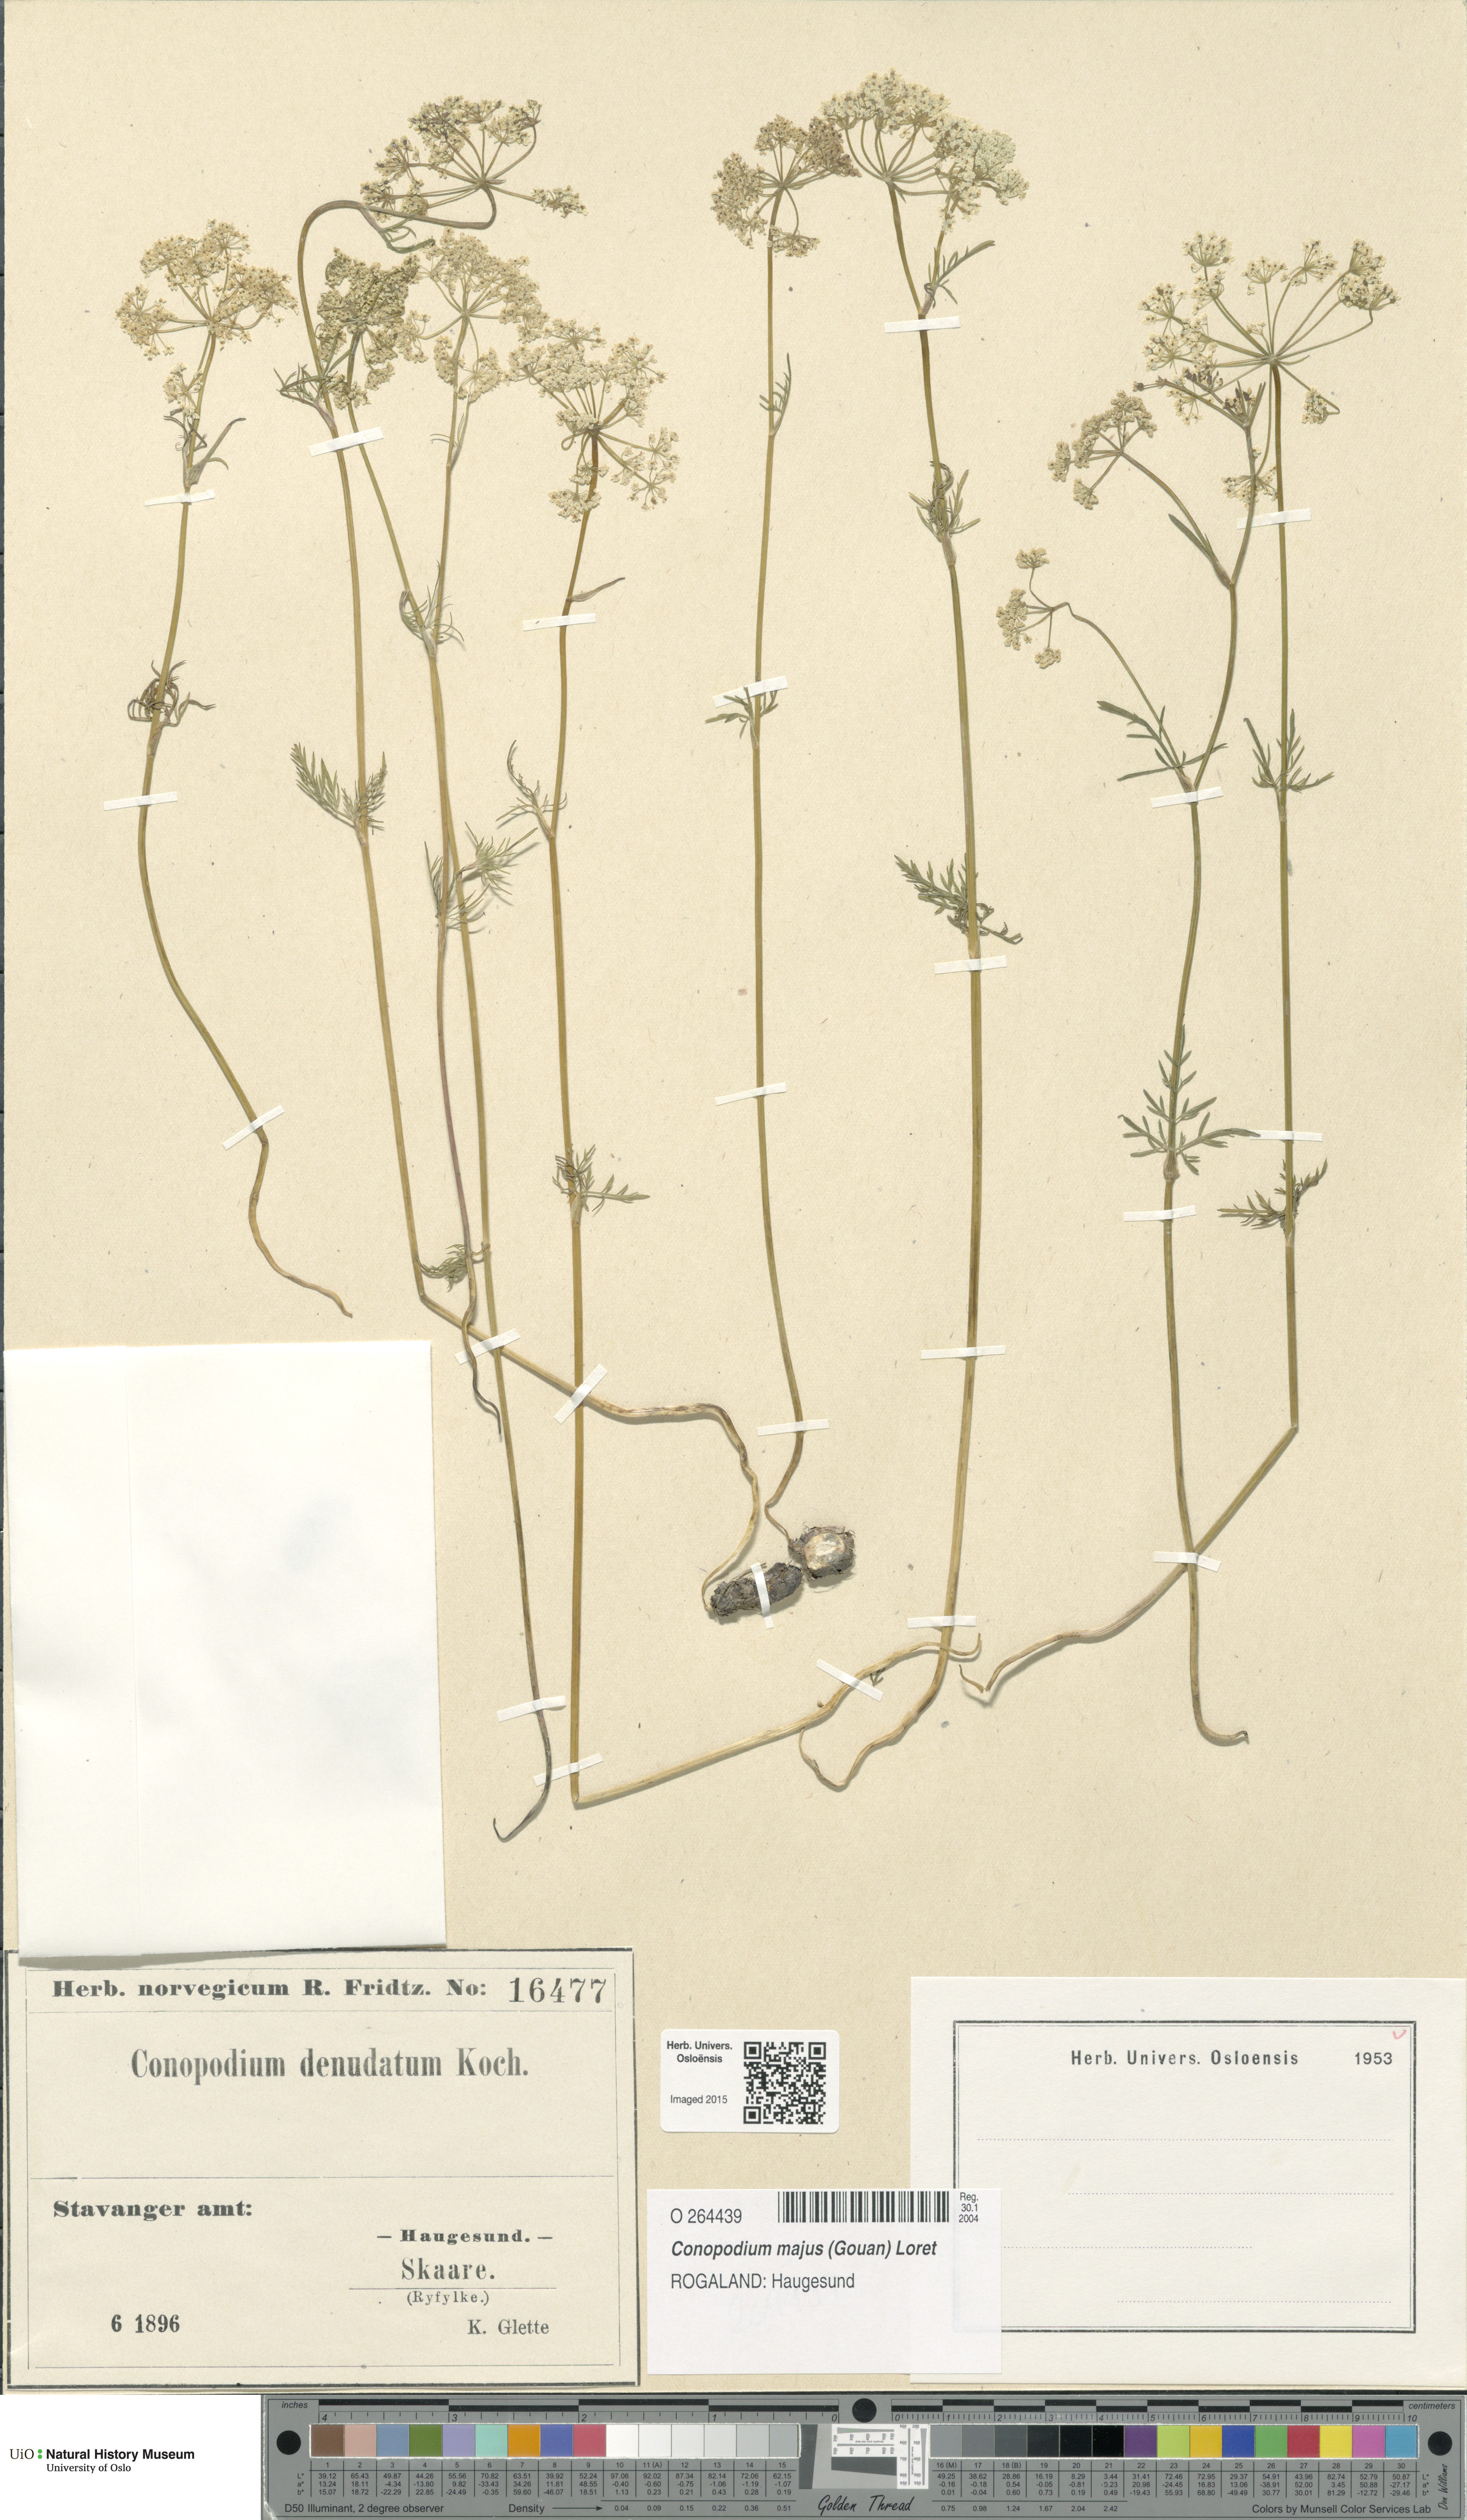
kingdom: Plantae
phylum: Tracheophyta
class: Magnoliopsida
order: Apiales
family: Apiaceae
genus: Conopodium
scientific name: Conopodium majus
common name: Pignut
